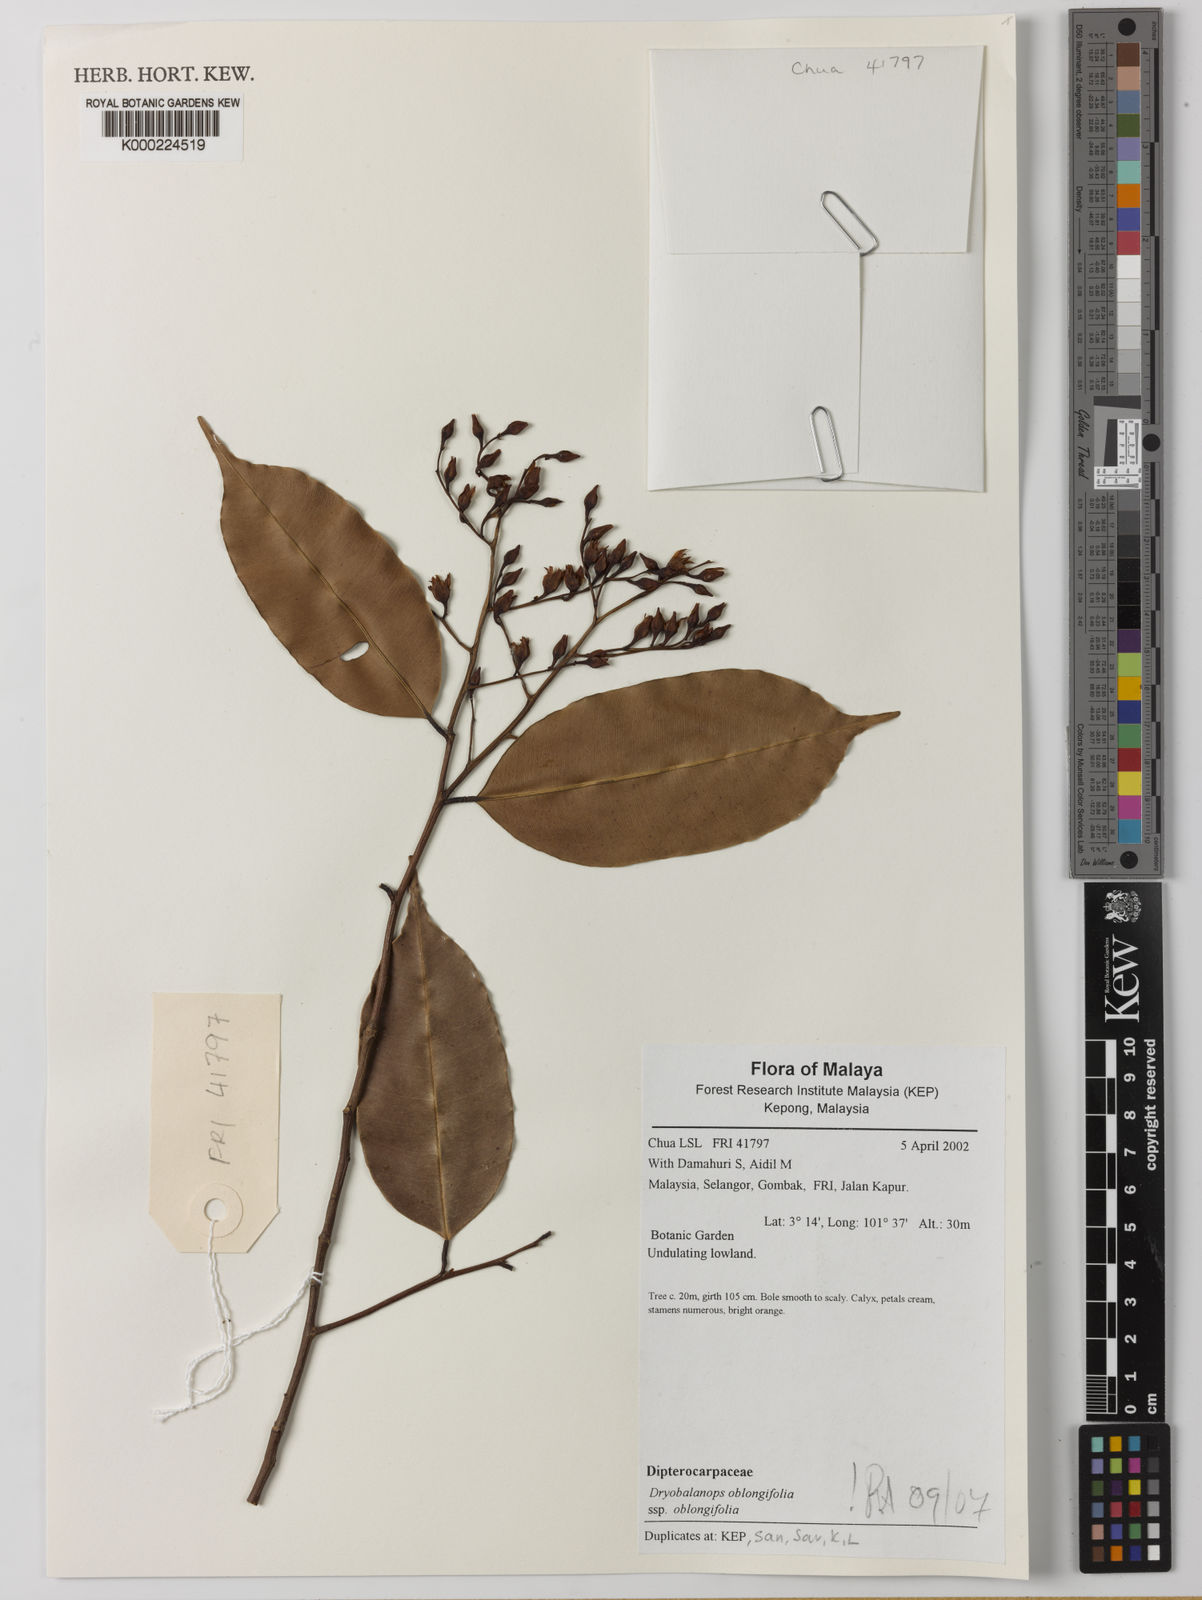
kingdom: Plantae
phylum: Tracheophyta
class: Magnoliopsida
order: Malvales
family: Dipterocarpaceae
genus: Dryobalanops
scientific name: Dryobalanops oblongifolia
